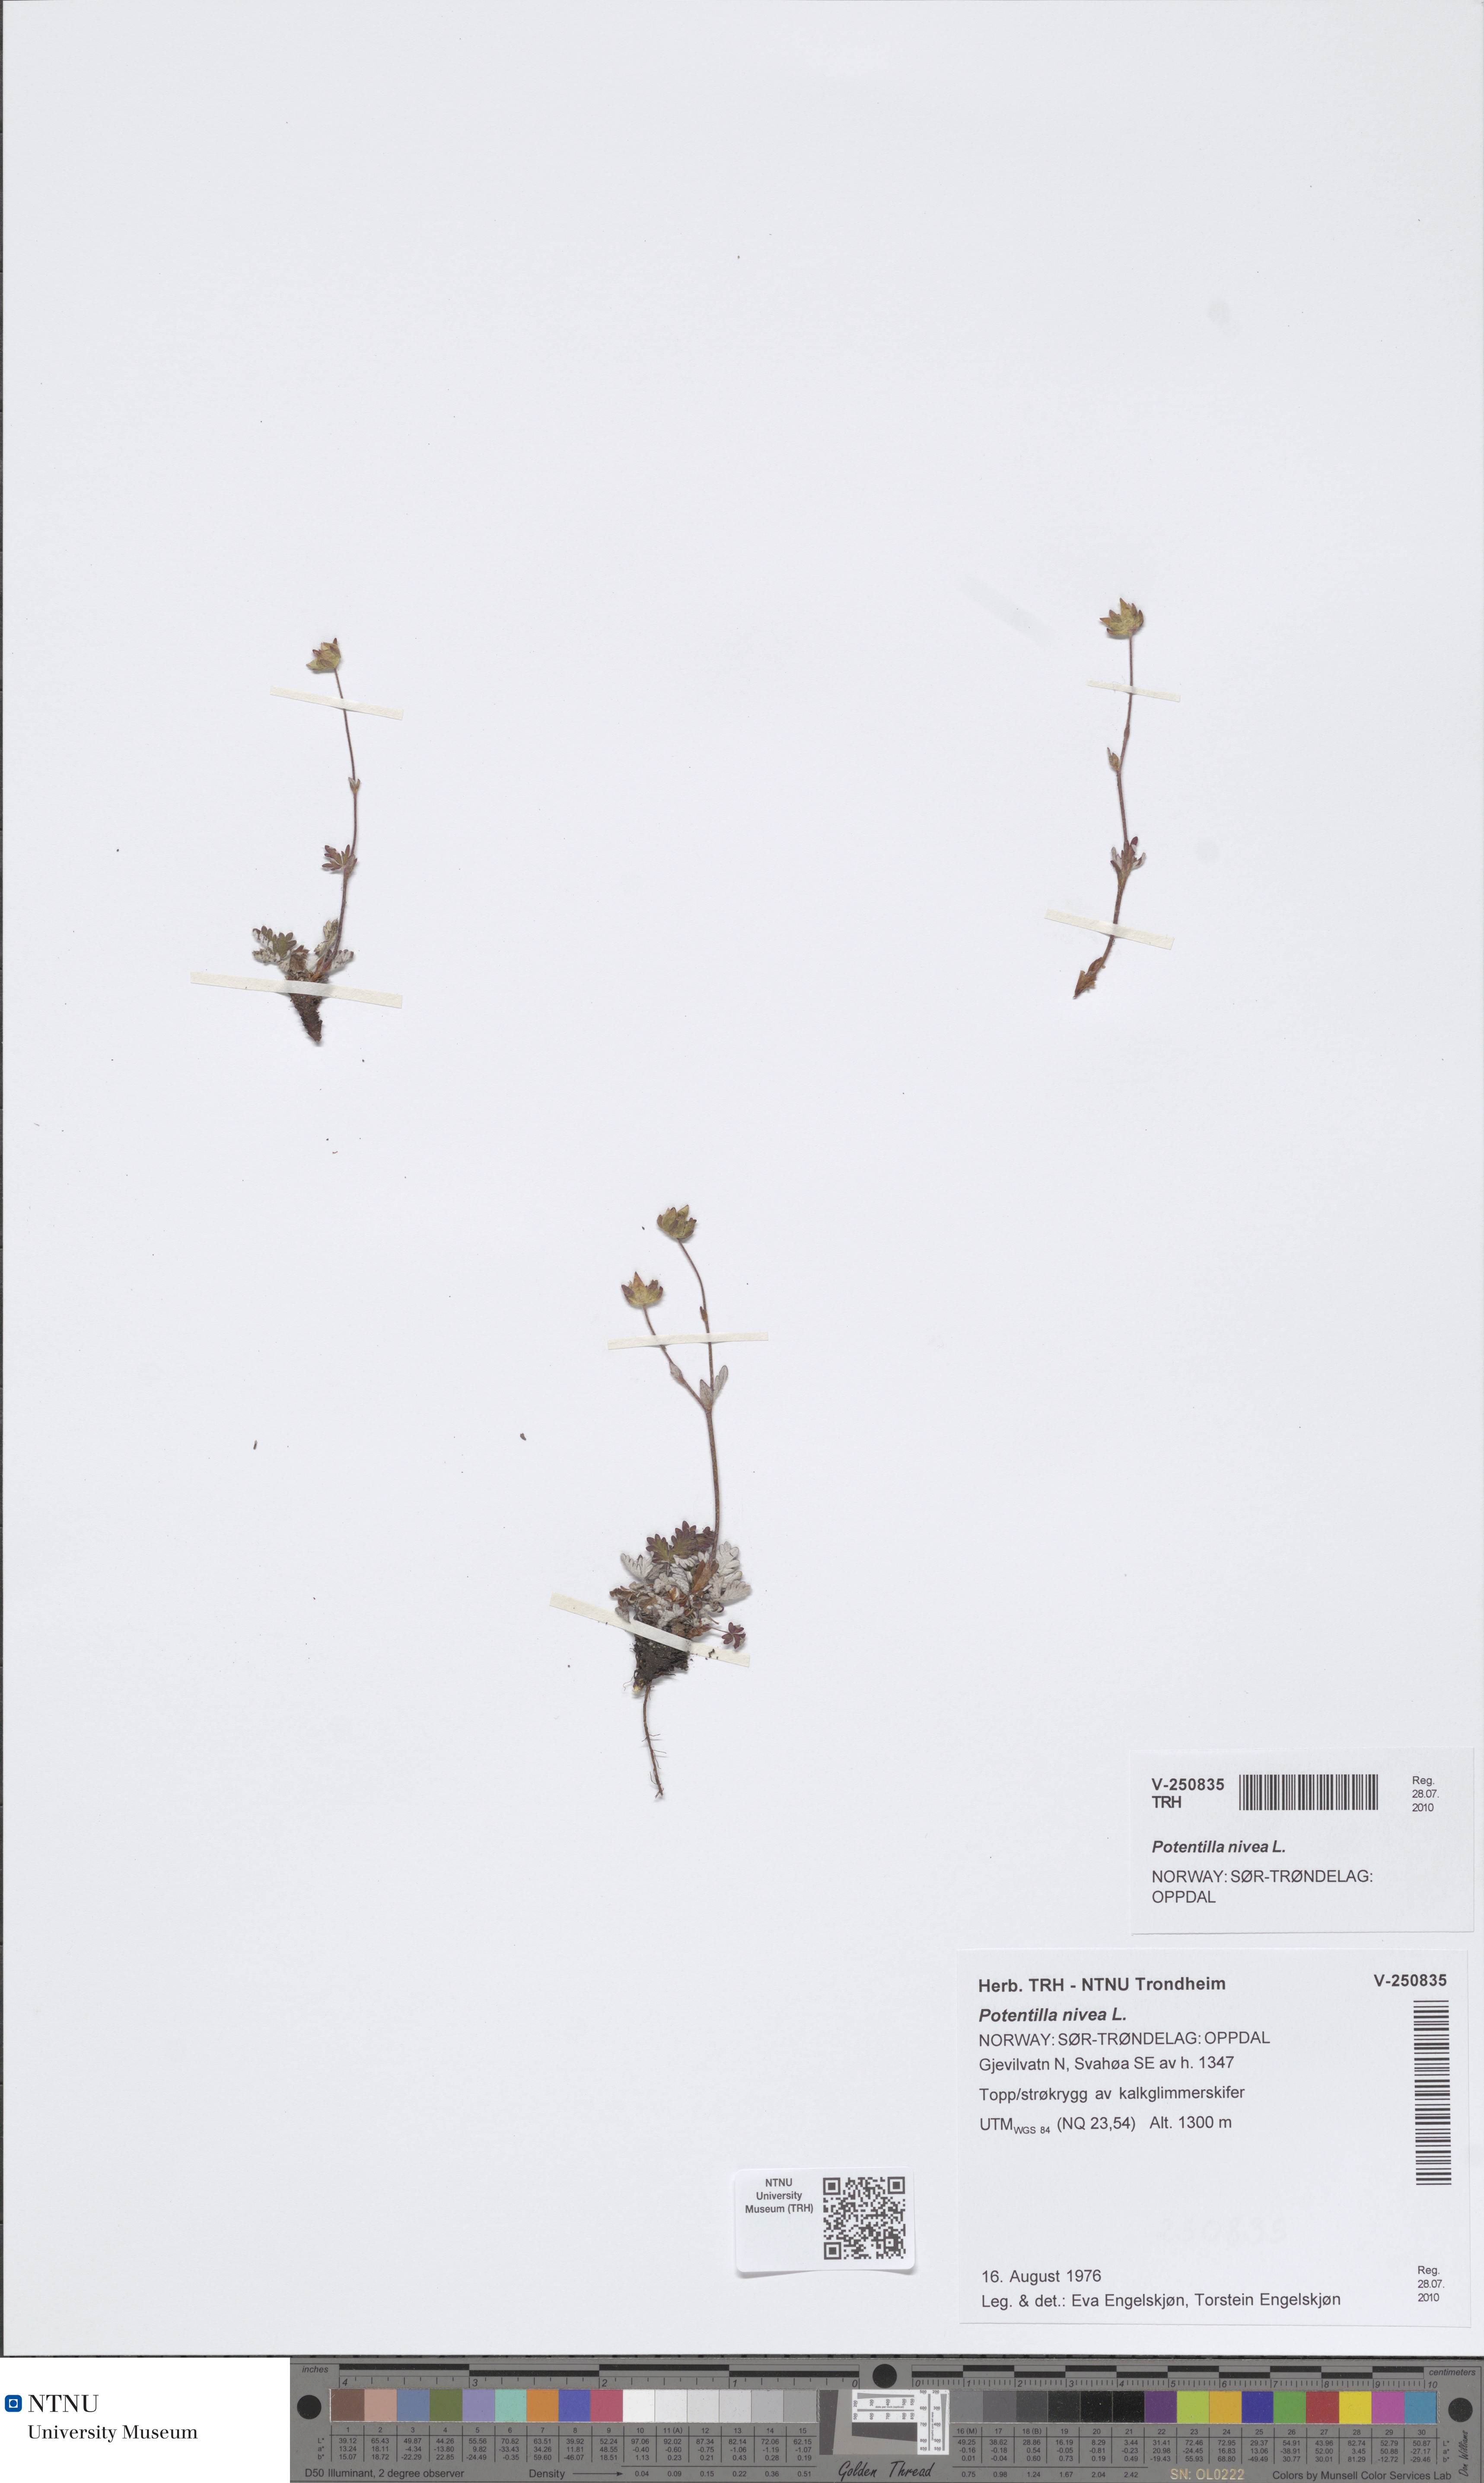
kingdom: Plantae
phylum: Tracheophyta
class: Magnoliopsida
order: Rosales
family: Rosaceae
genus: Potentilla
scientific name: Potentilla nivea
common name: Snow cinquefoil
